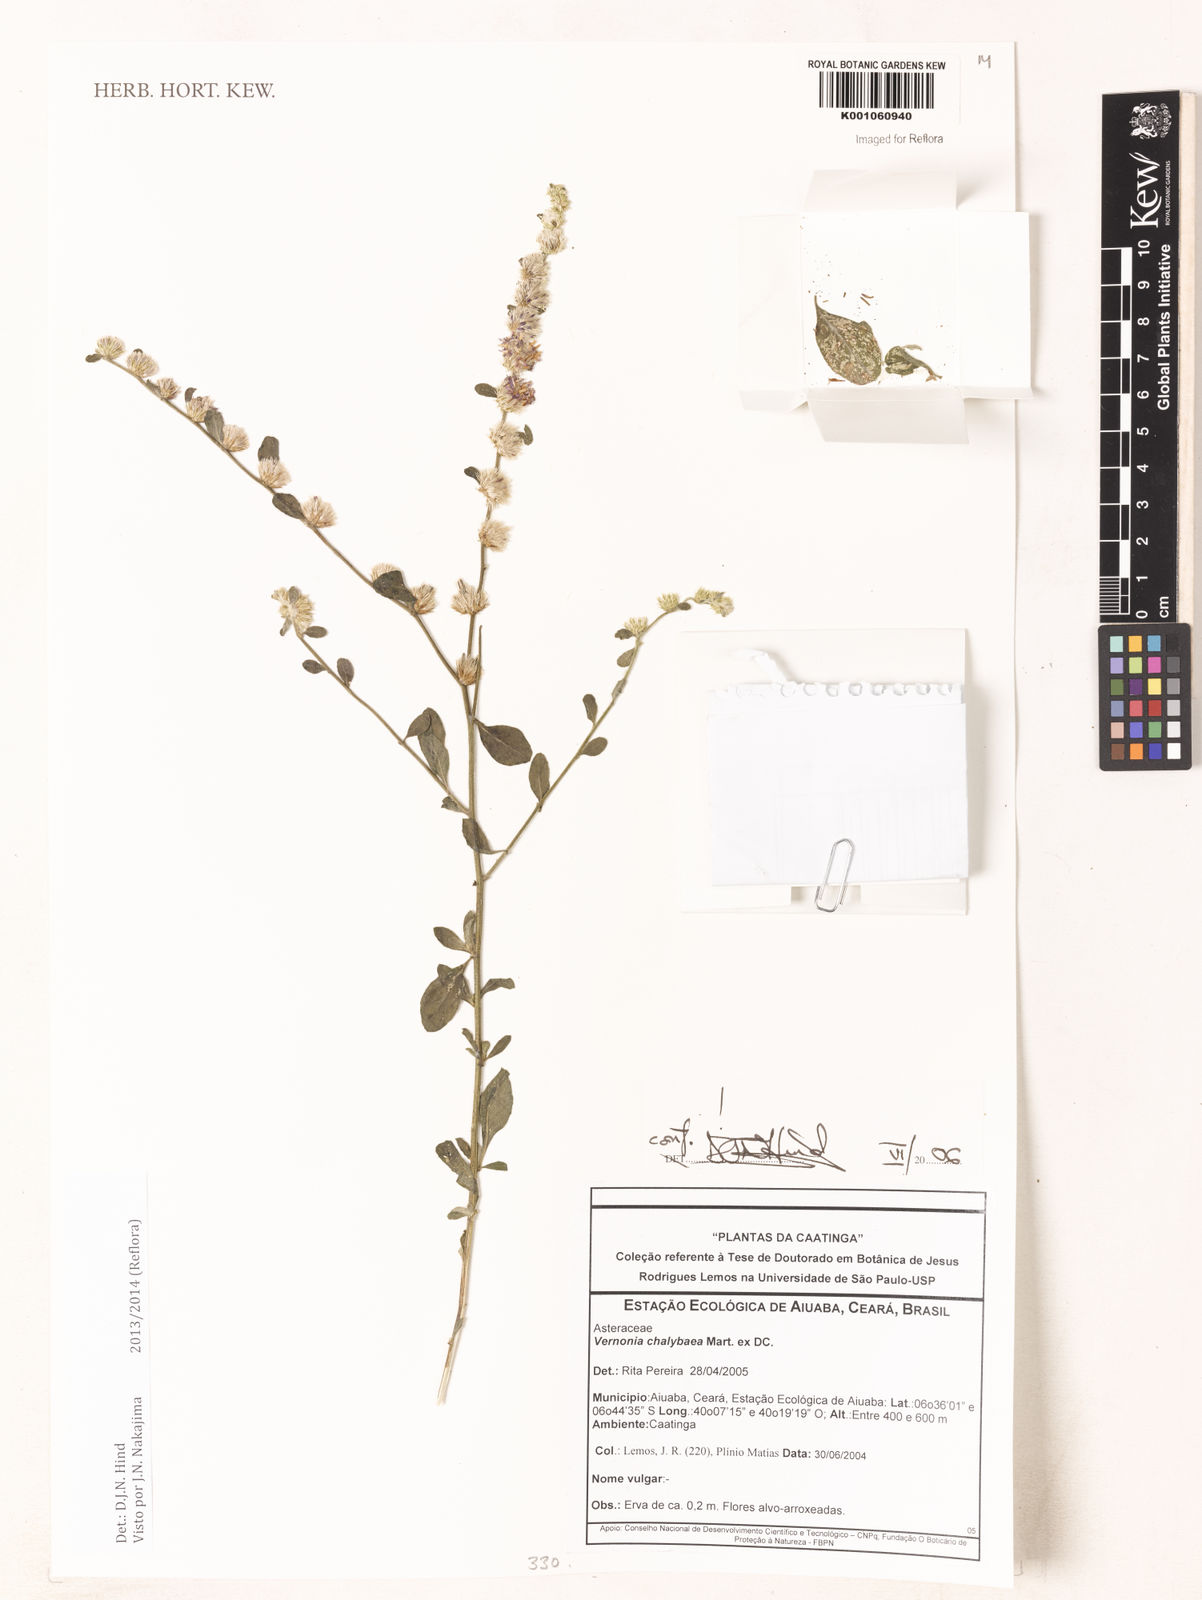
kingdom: Plantae
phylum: Tracheophyta
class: Magnoliopsida
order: Asterales
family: Asteraceae
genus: Lepidaploa
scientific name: Lepidaploa chalybaea
